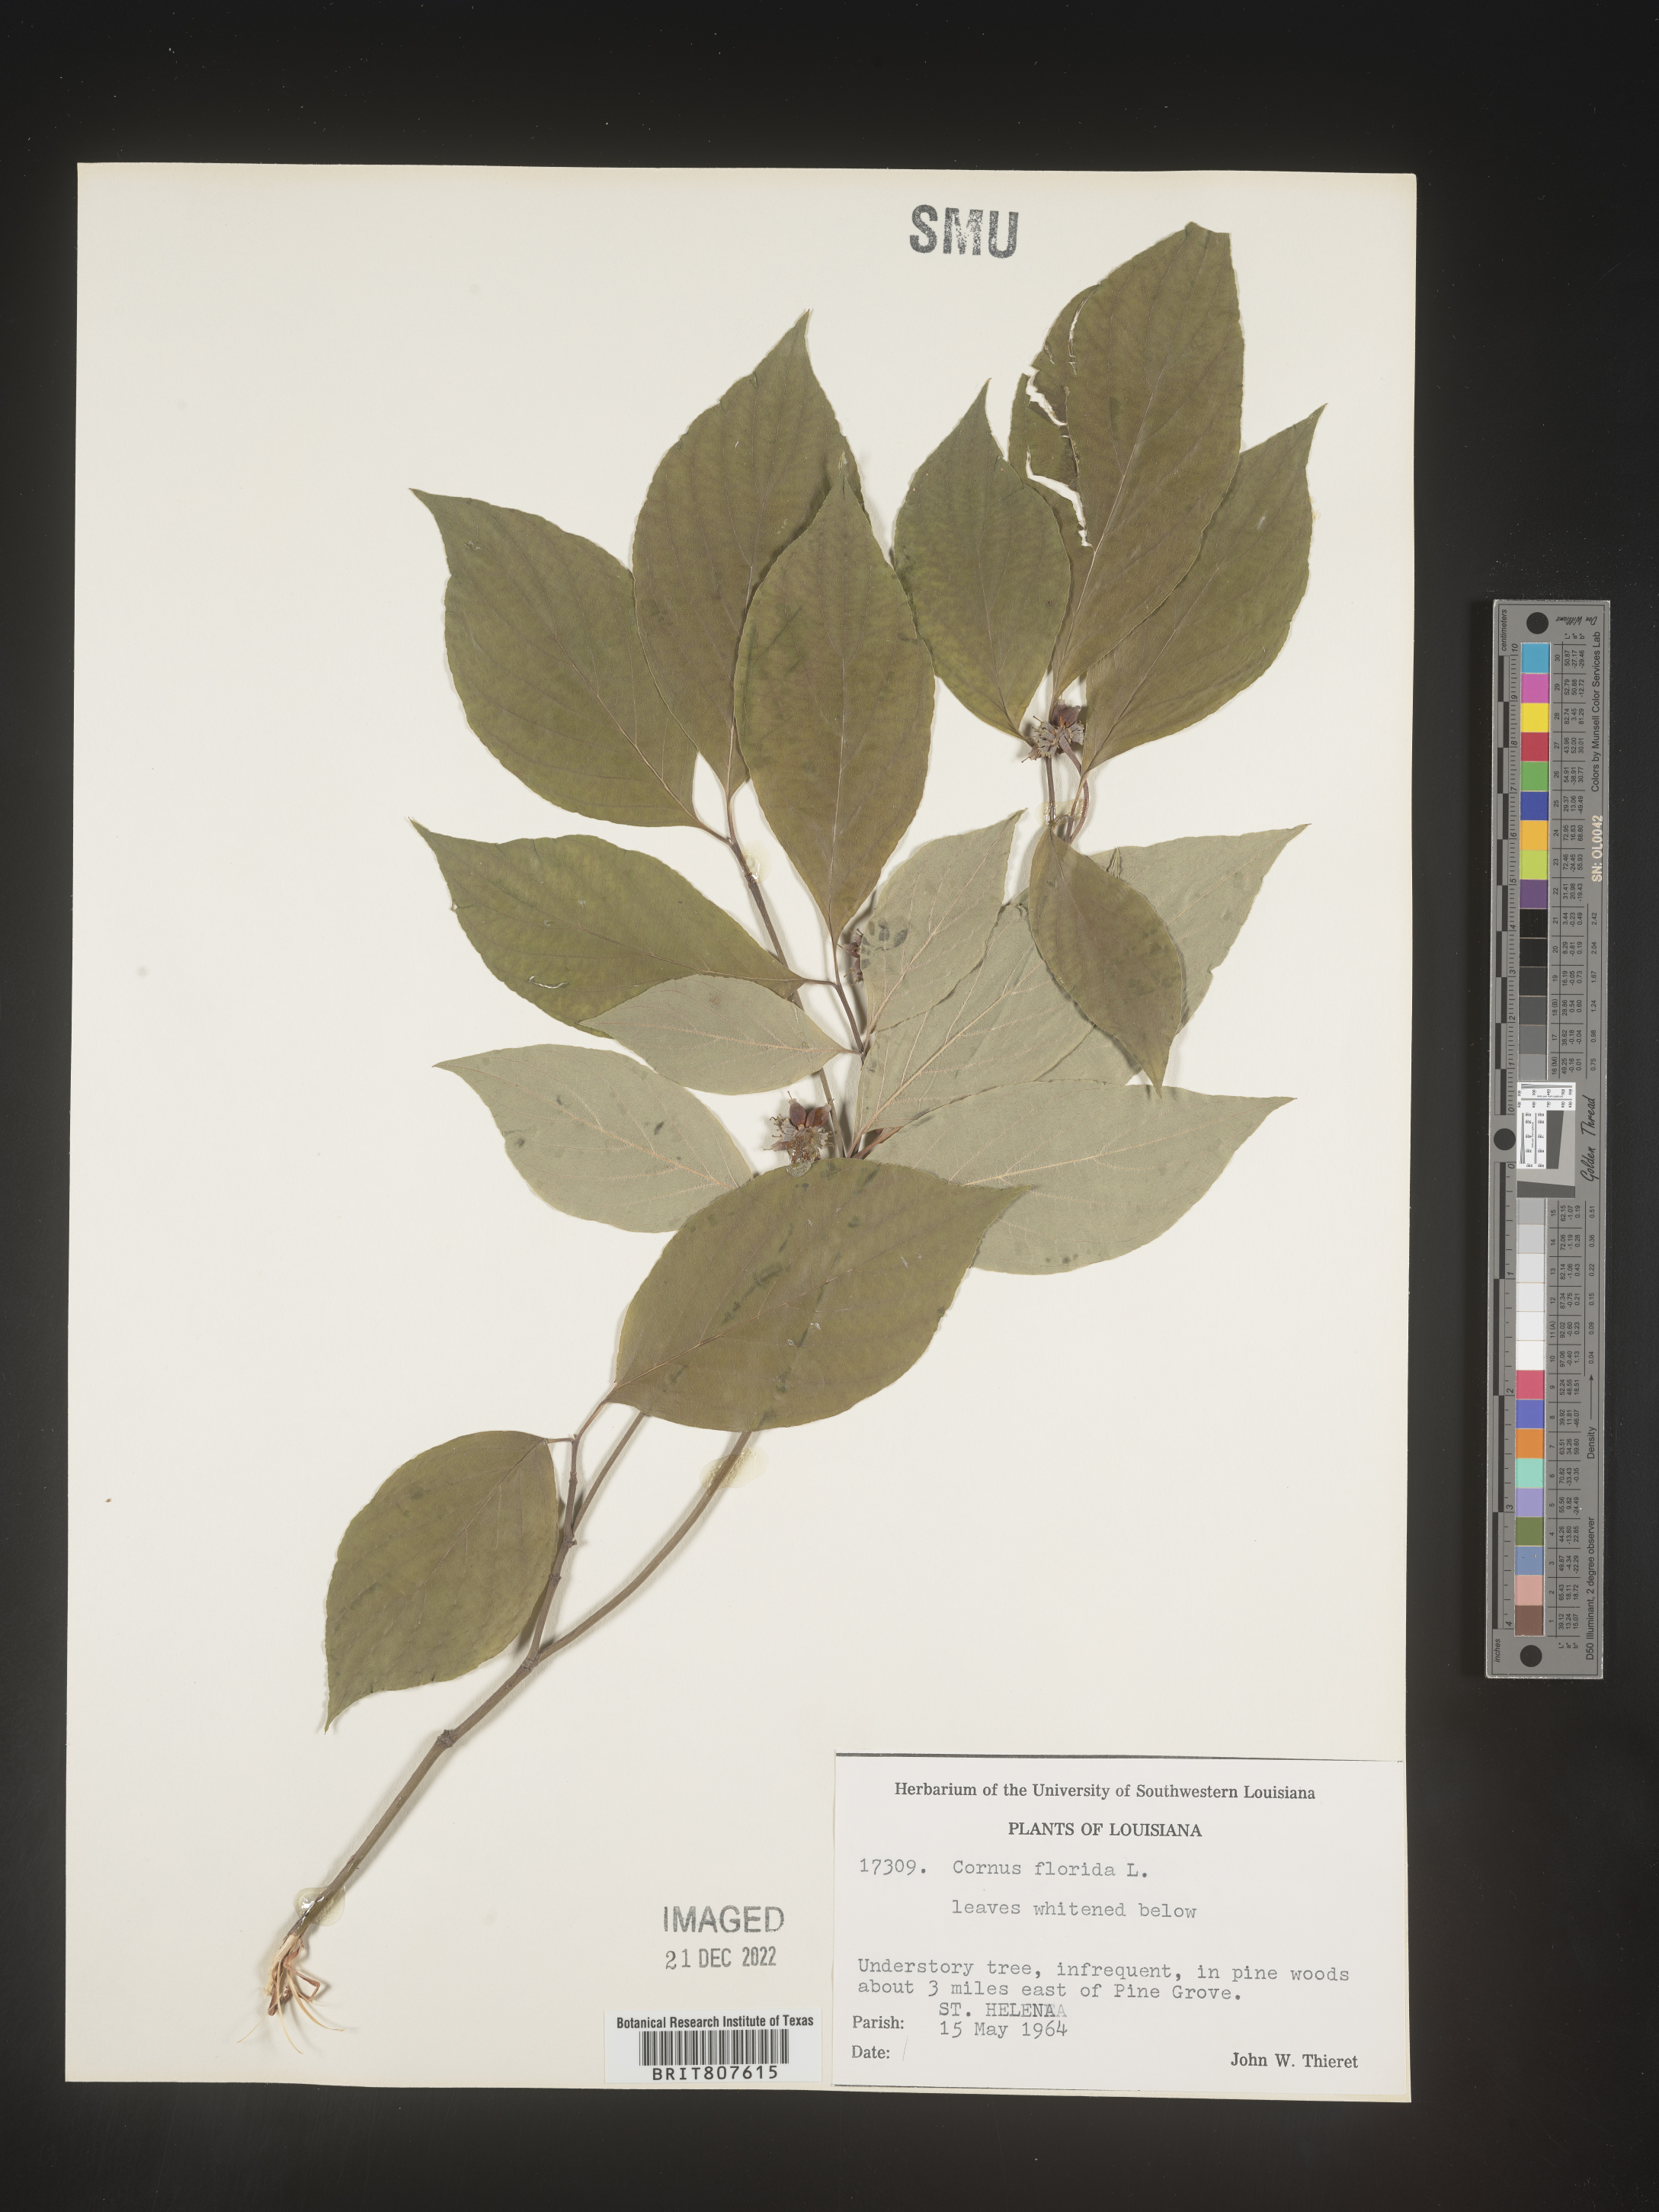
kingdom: Plantae
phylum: Tracheophyta
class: Magnoliopsida
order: Cornales
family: Cornaceae
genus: Cornus
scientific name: Cornus florida
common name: Flowering dogwood
